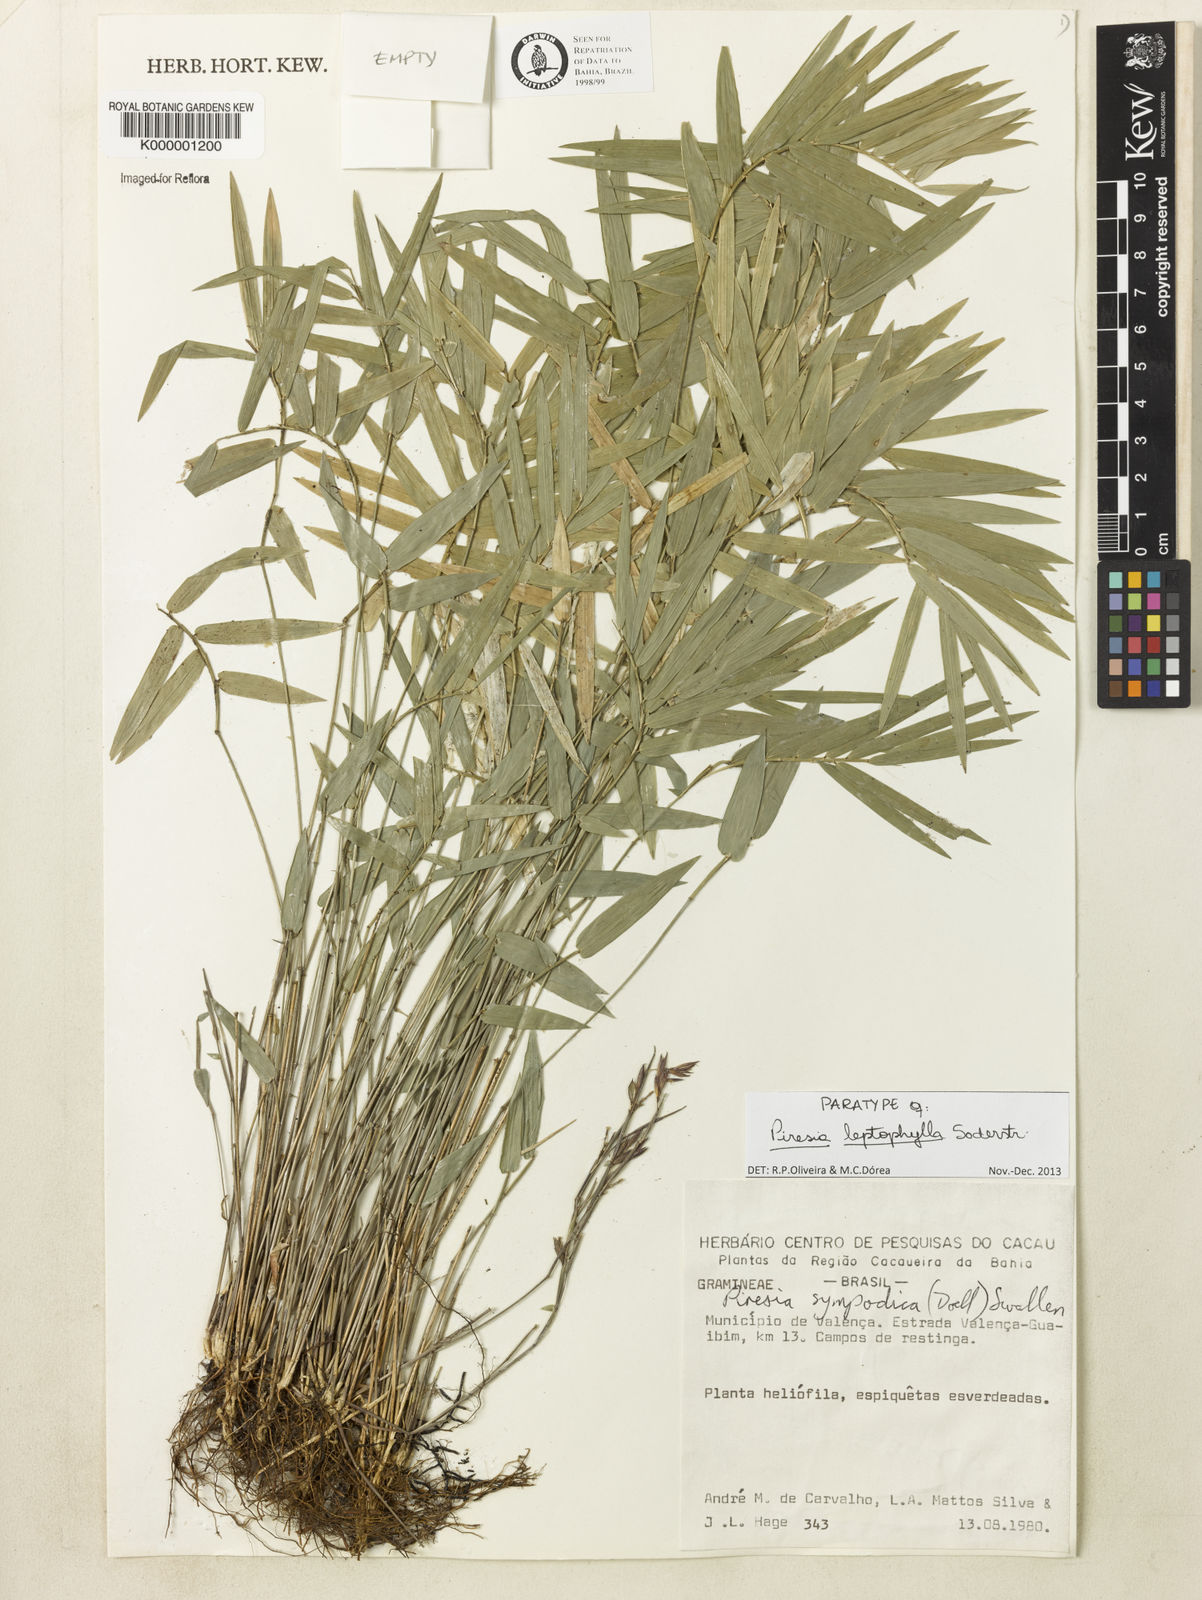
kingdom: Plantae
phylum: Tracheophyta
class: Liliopsida
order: Poales
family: Poaceae
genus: Piresia
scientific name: Piresia leptophylla
